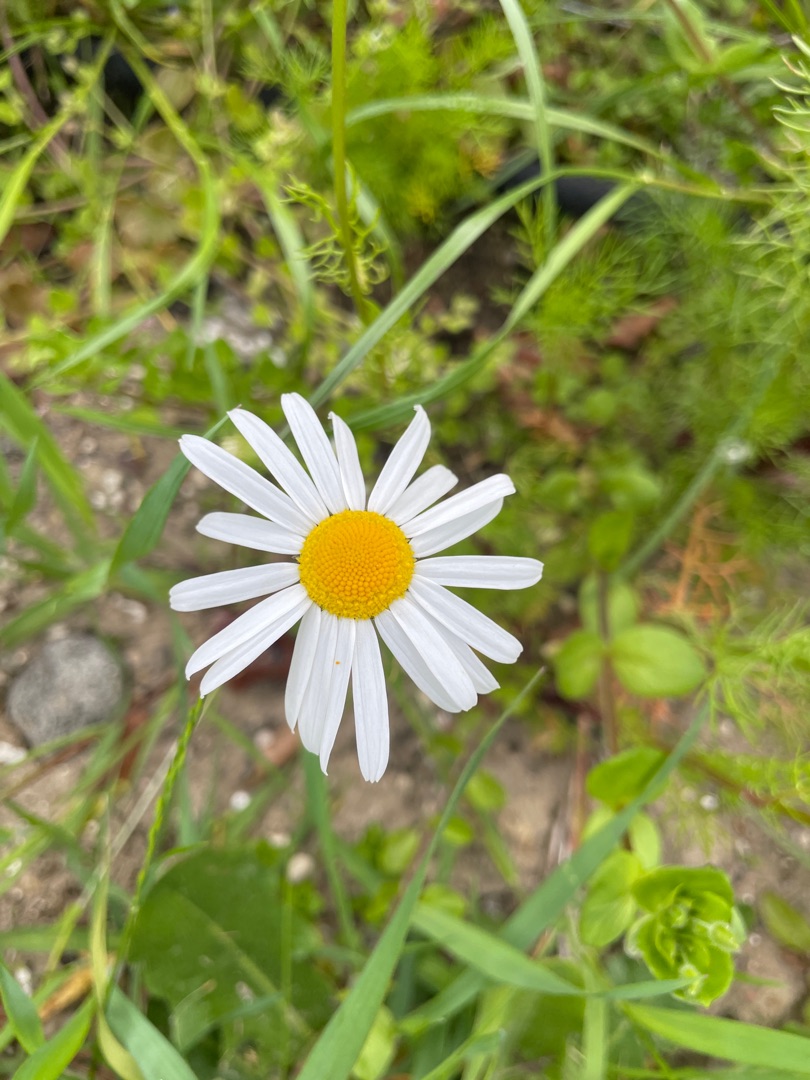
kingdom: Plantae
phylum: Tracheophyta
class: Magnoliopsida
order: Asterales
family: Asteraceae
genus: Tripleurospermum
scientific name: Tripleurospermum inodorum
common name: Lugtløs kamille
